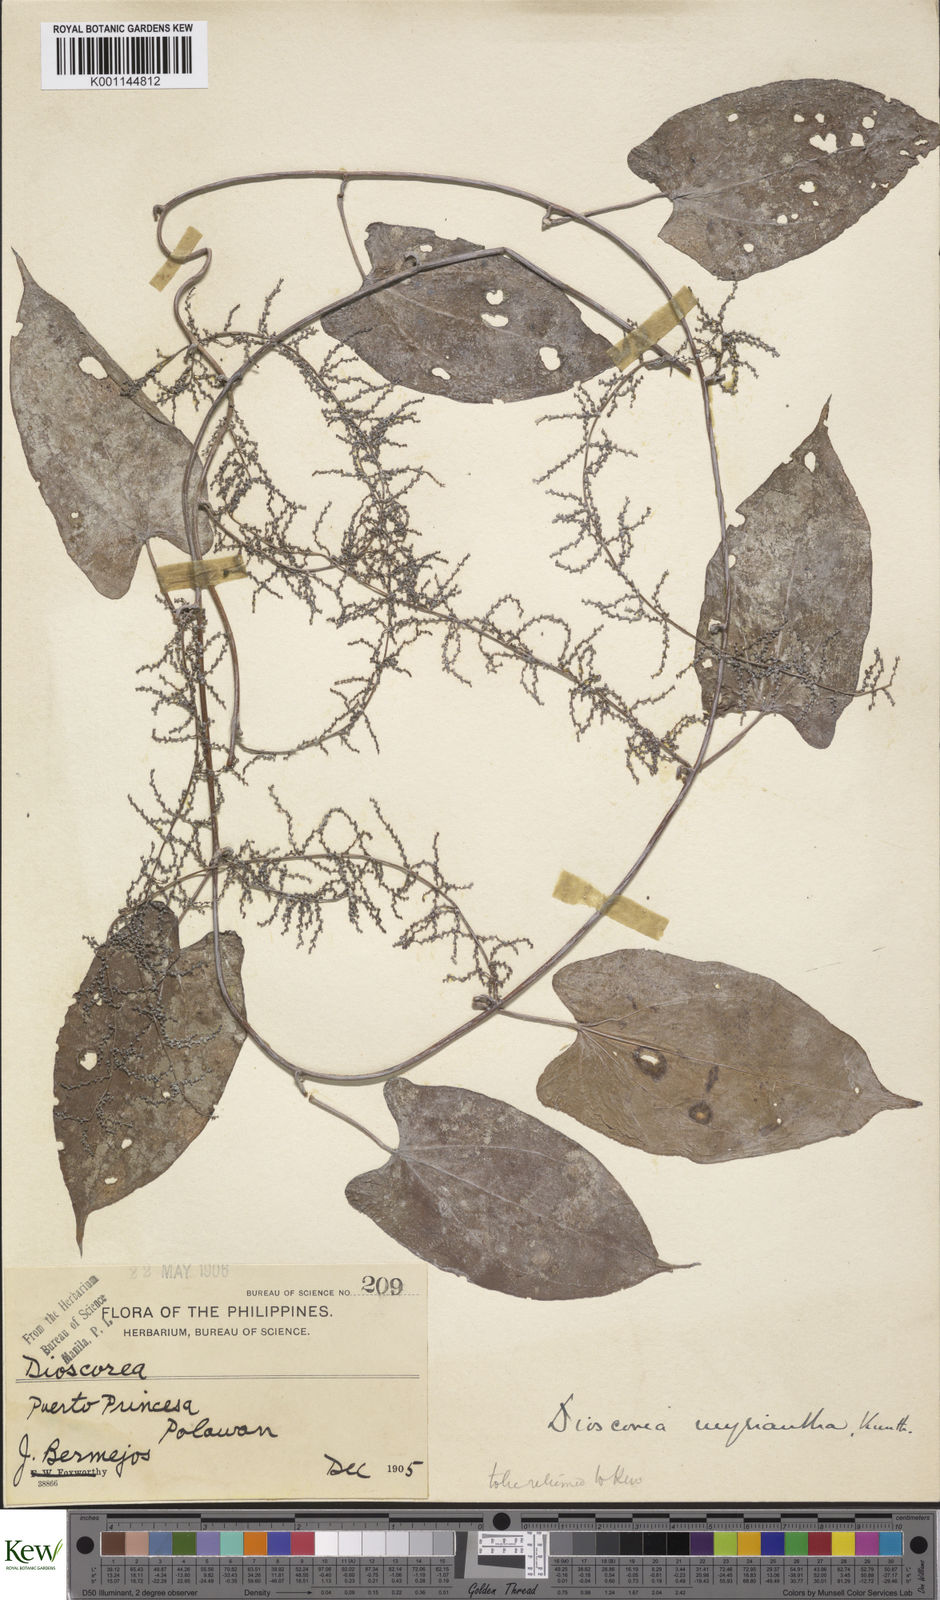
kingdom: Plantae
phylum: Tracheophyta
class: Liliopsida
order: Dioscoreales
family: Dioscoreaceae
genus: Dioscorea
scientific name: Dioscorea filiformis
